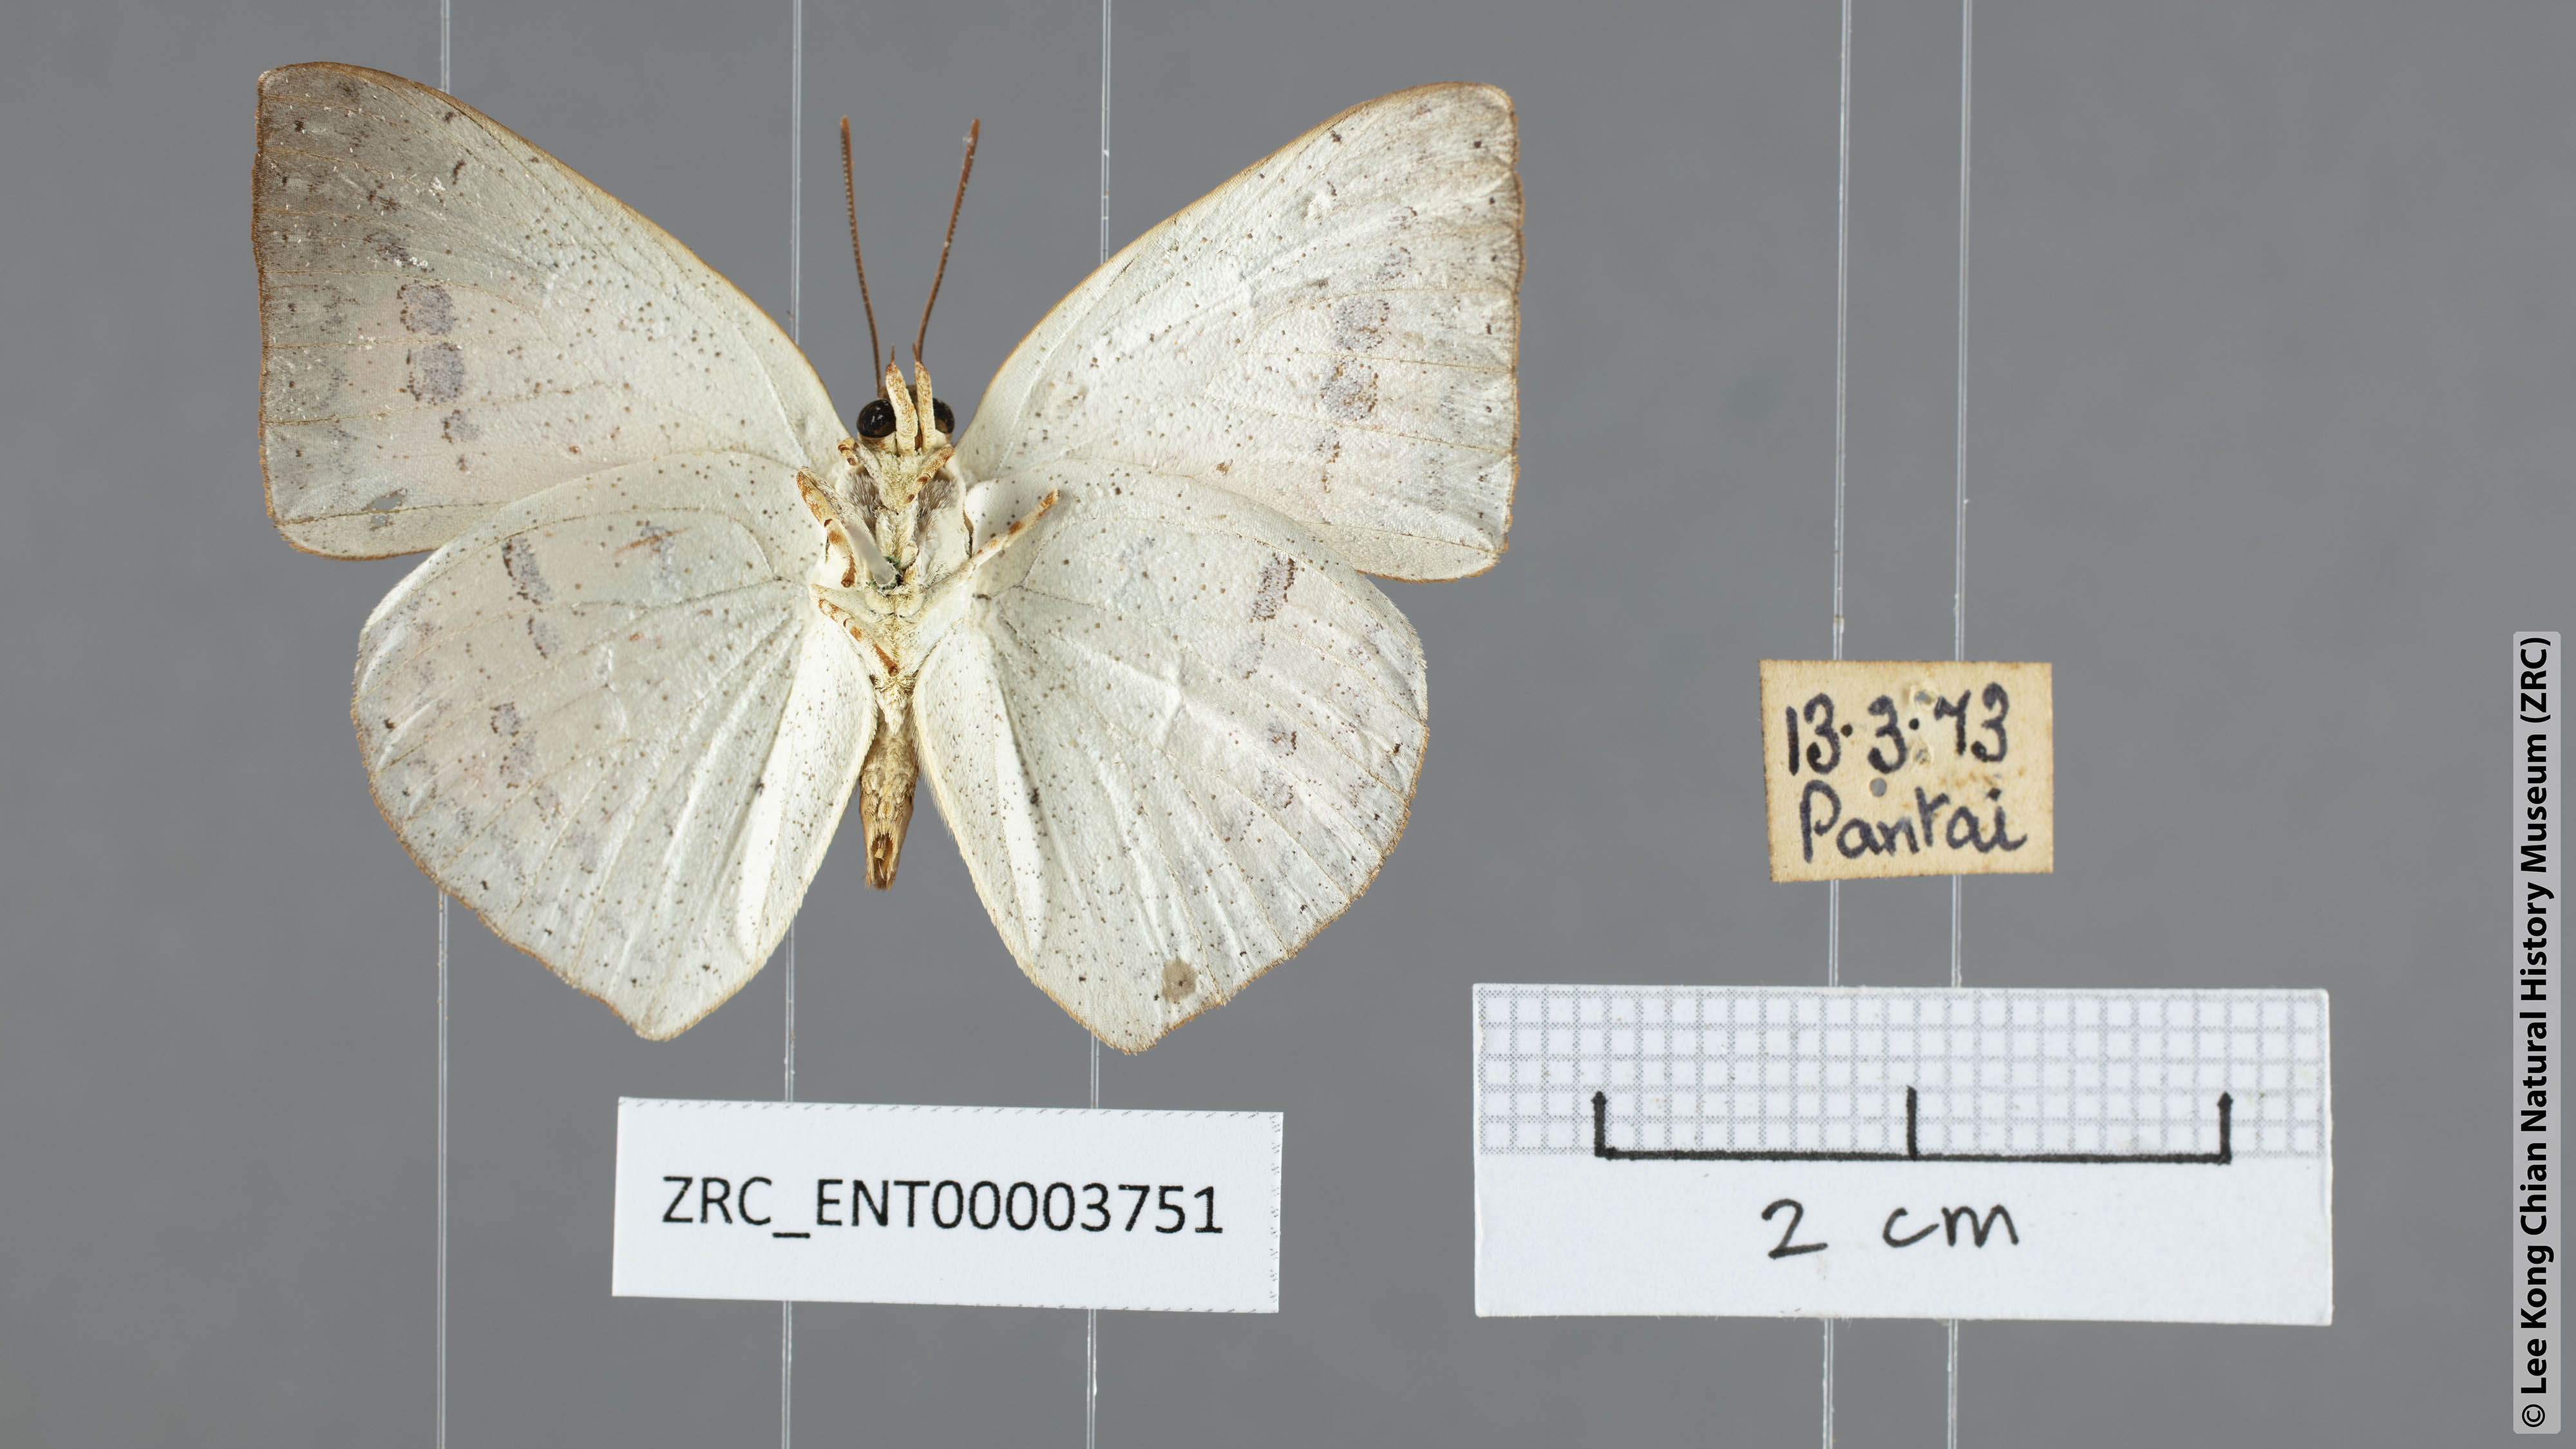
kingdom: Animalia
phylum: Arthropoda
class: Insecta
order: Lepidoptera
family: Lycaenidae
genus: Curetis
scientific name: Curetis santana
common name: Malayan sunbeam
